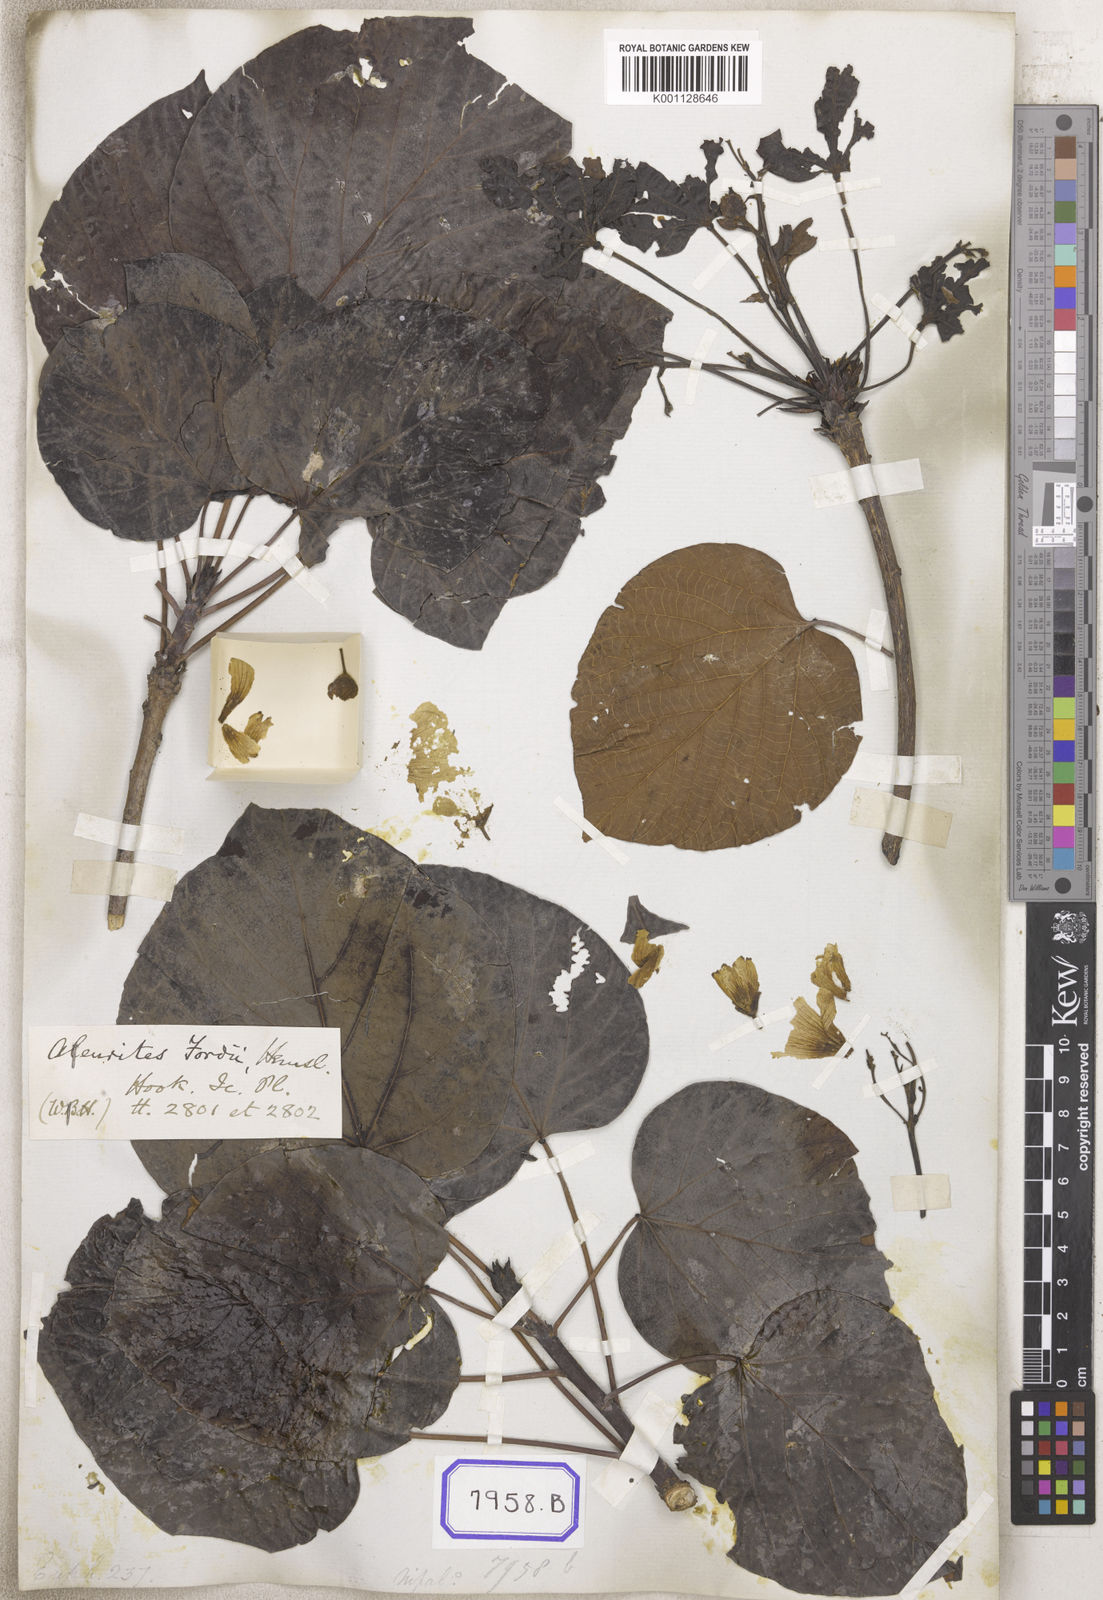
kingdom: Plantae
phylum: Tracheophyta
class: Magnoliopsida
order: Malpighiales
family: Euphorbiaceae
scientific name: Euphorbiaceae
